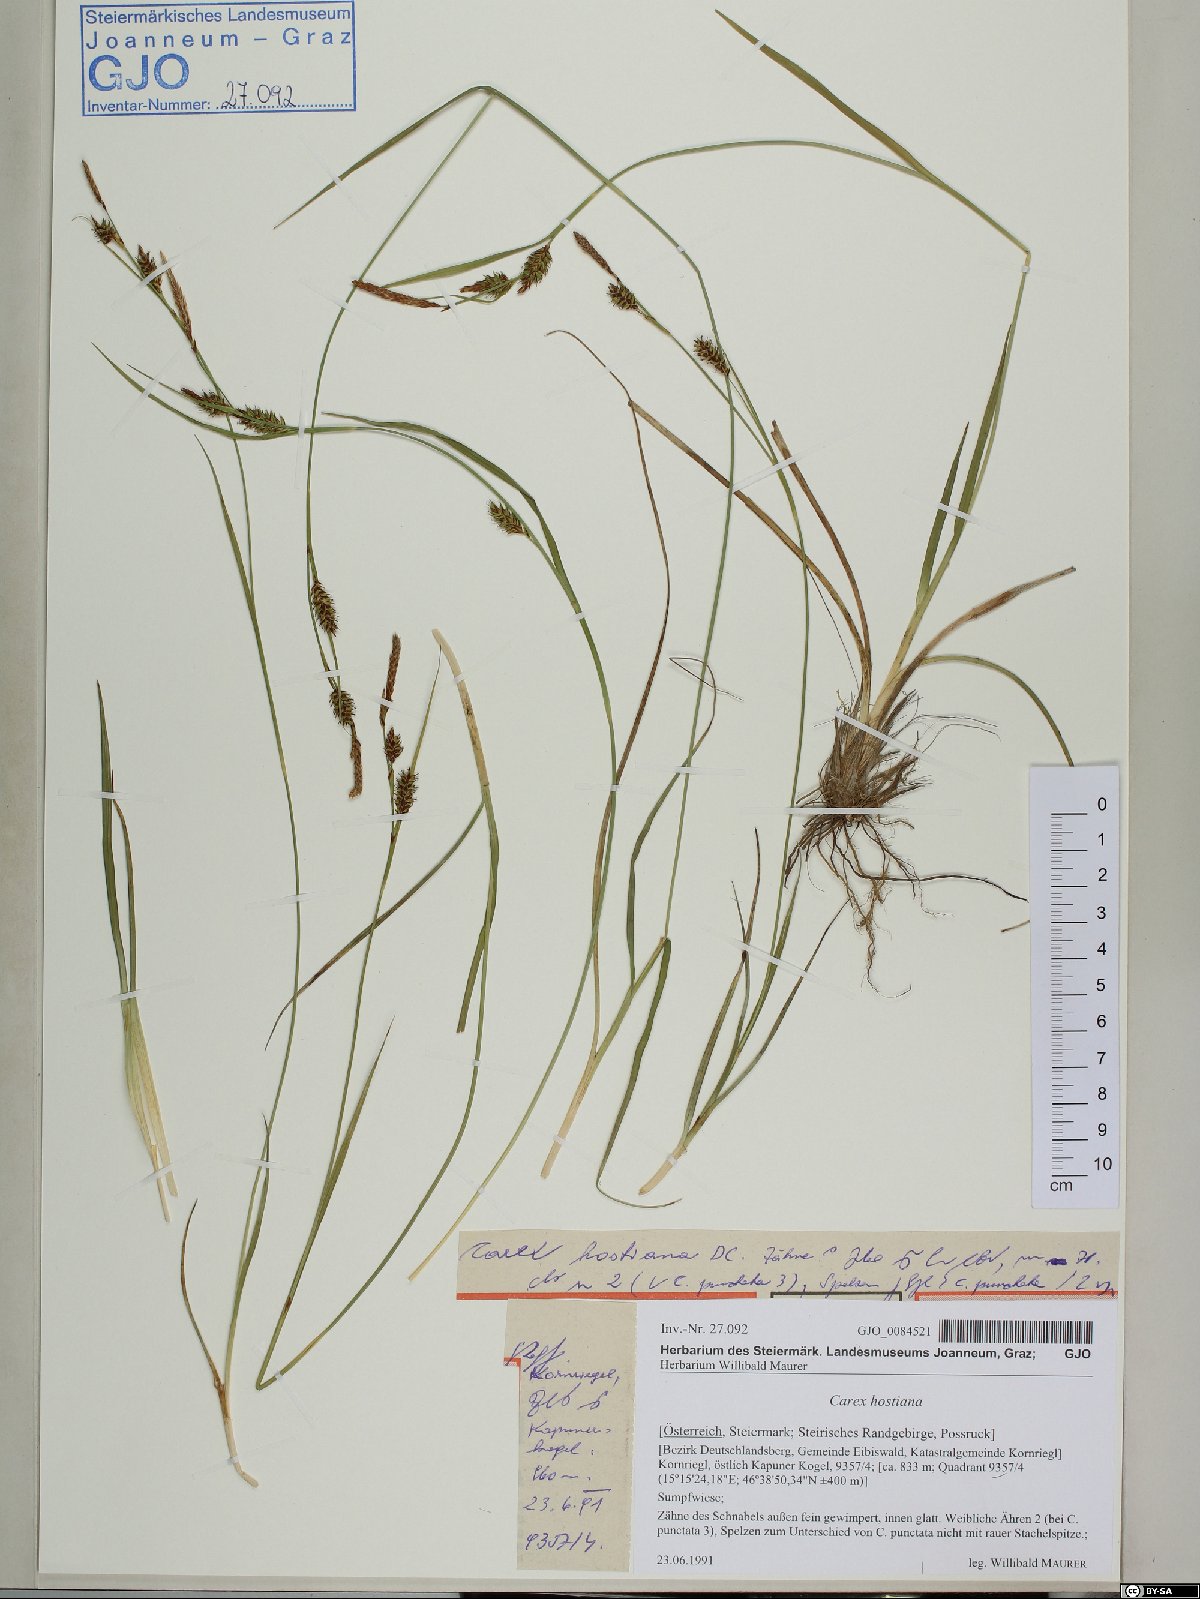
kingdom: Plantae
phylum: Tracheophyta
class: Liliopsida
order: Poales
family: Cyperaceae
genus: Carex
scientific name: Carex hostiana
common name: Tawny sedge
